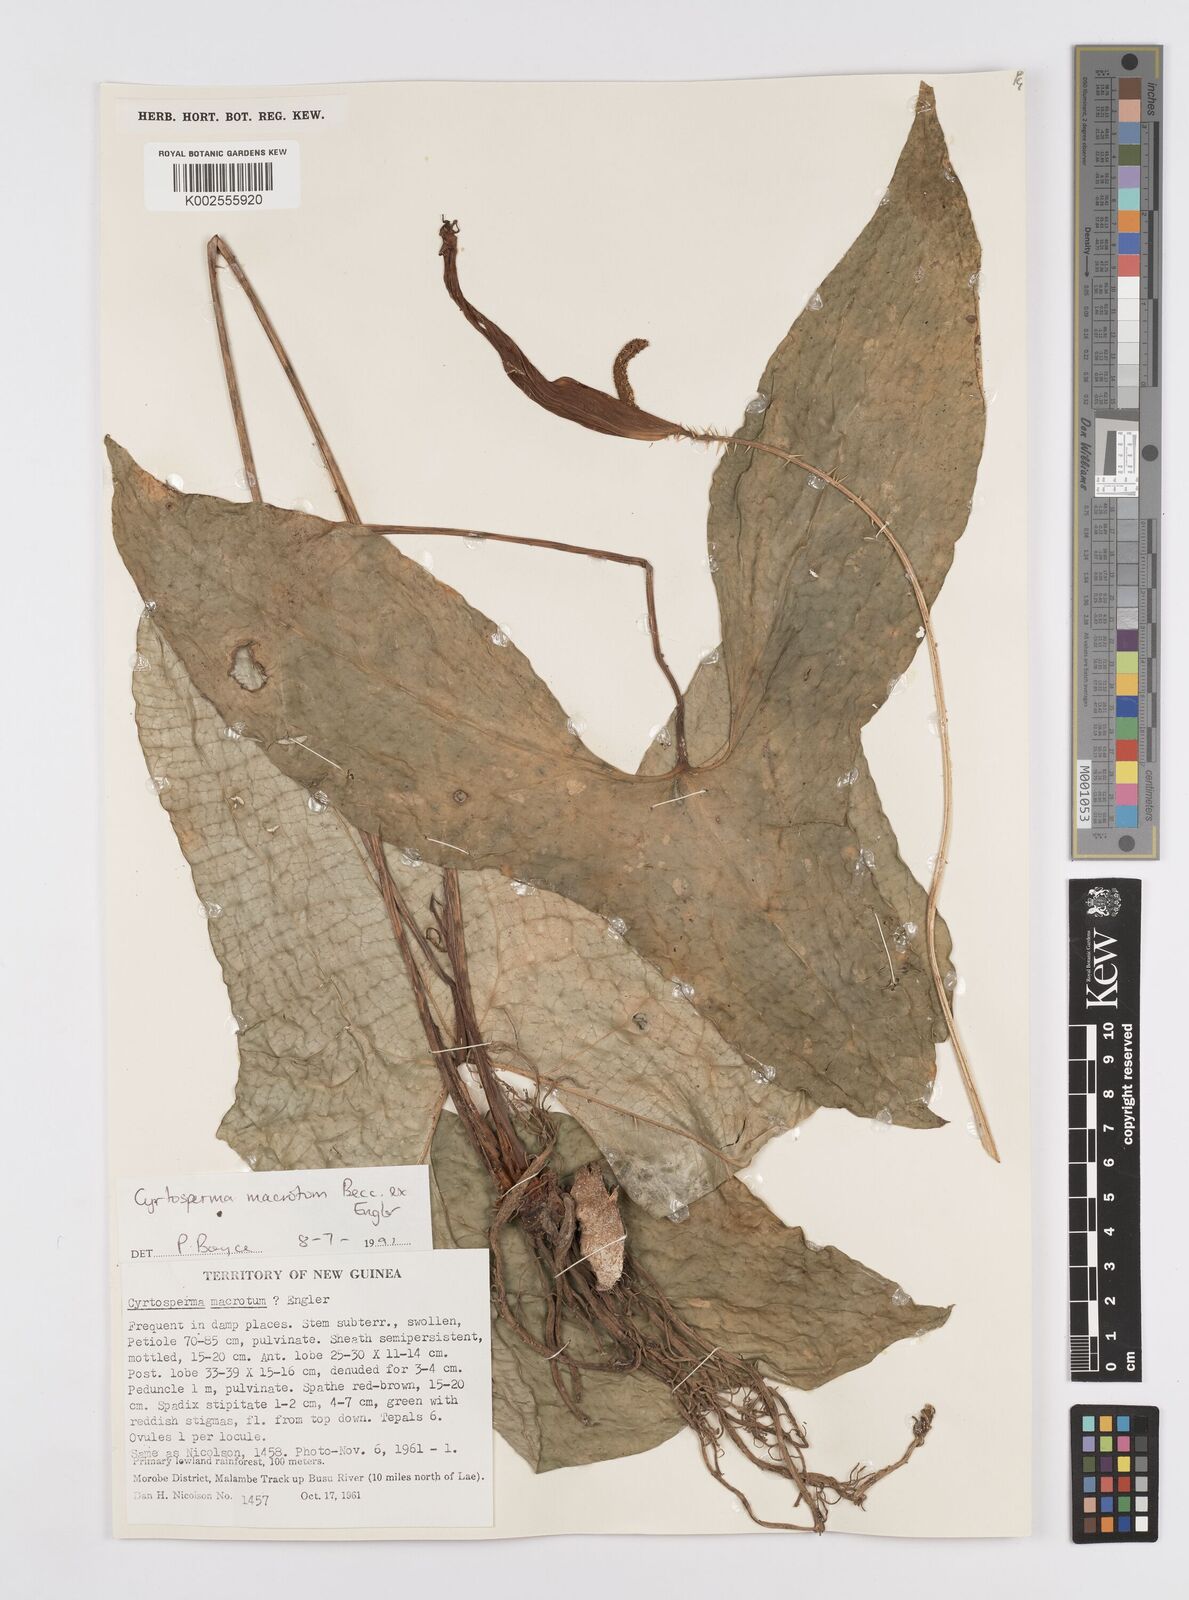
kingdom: Plantae
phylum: Tracheophyta
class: Liliopsida
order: Alismatales
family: Araceae
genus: Cyrtosperma
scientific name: Cyrtosperma macrotum
